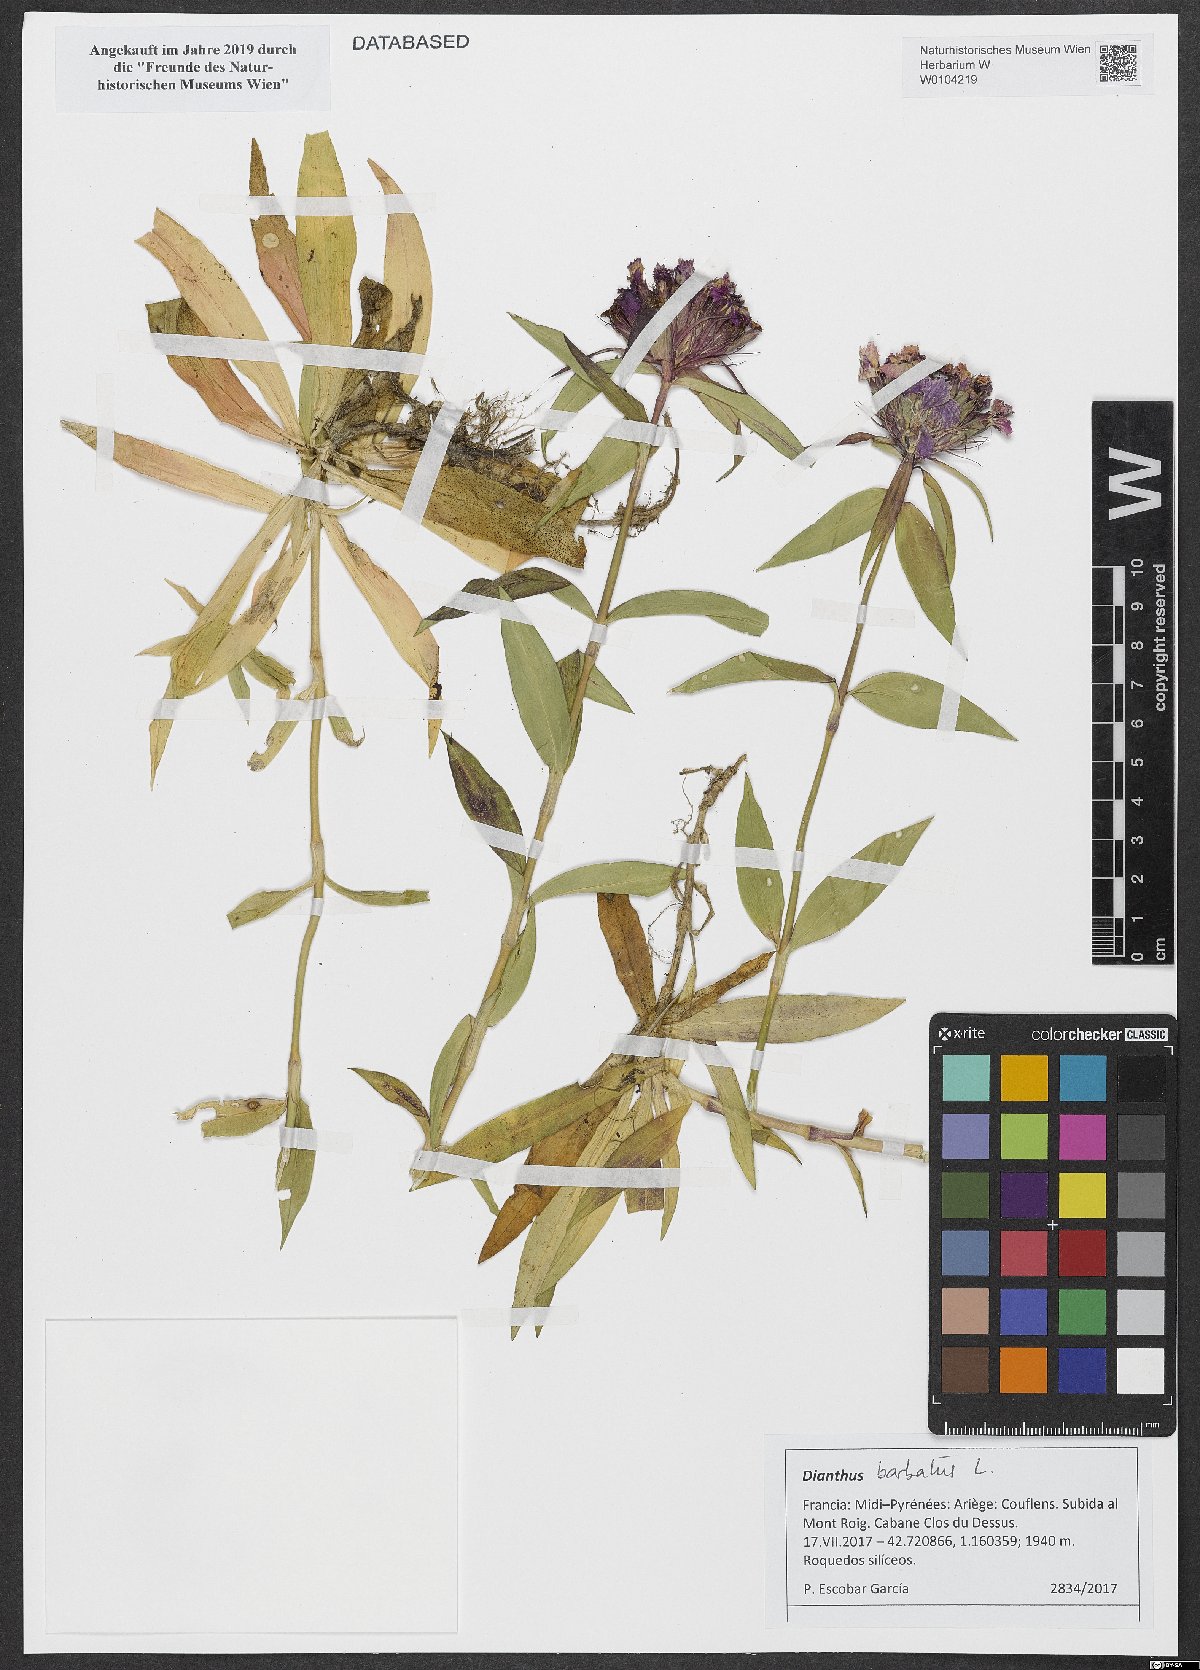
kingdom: Plantae
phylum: Tracheophyta
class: Magnoliopsida
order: Caryophyllales
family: Caryophyllaceae
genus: Dianthus
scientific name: Dianthus barbatus
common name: Sweet-william
